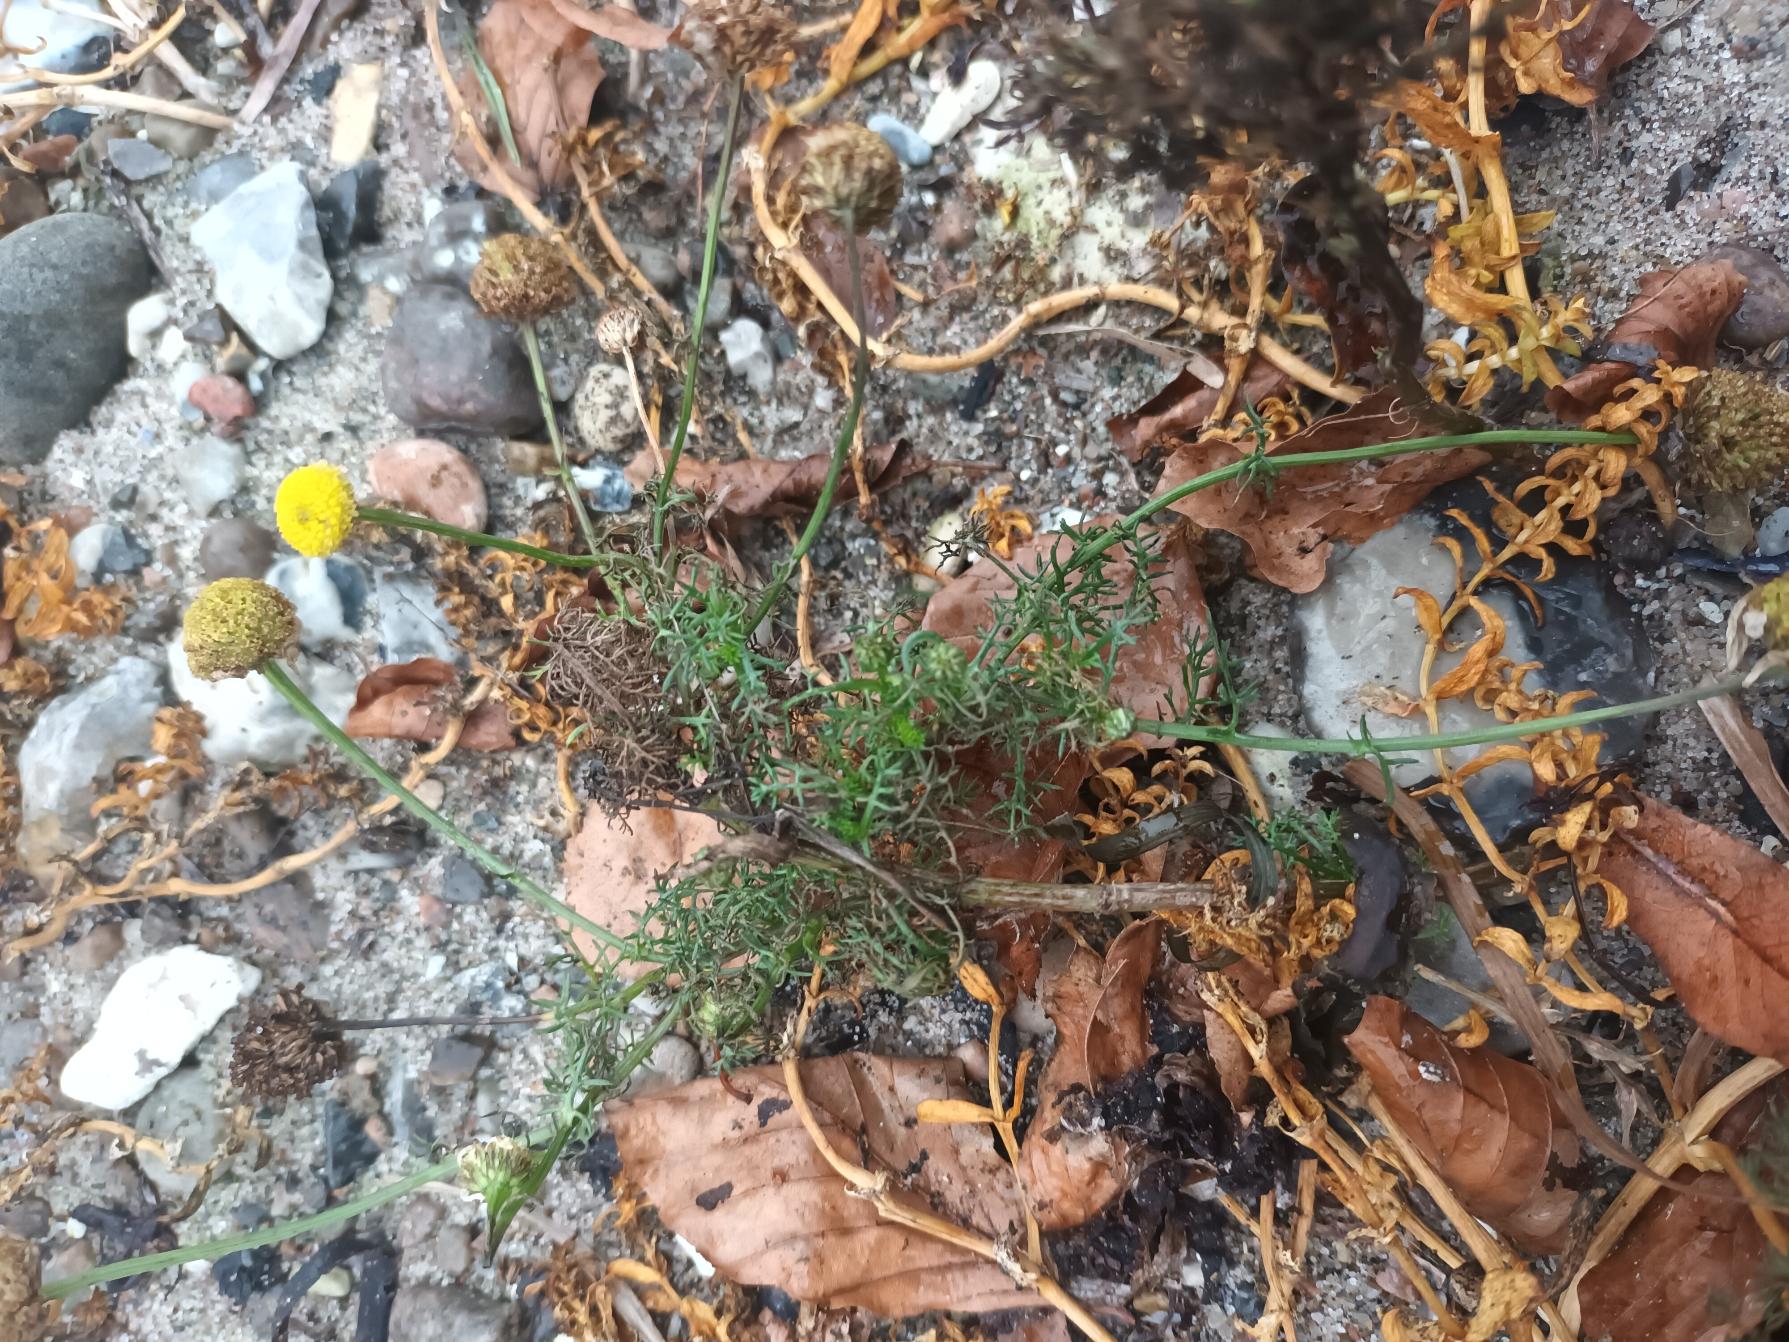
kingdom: Plantae
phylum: Tracheophyta
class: Magnoliopsida
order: Asterales
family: Asteraceae
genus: Tripleurospermum
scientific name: Tripleurospermum maritimum
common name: Strand-kamille
